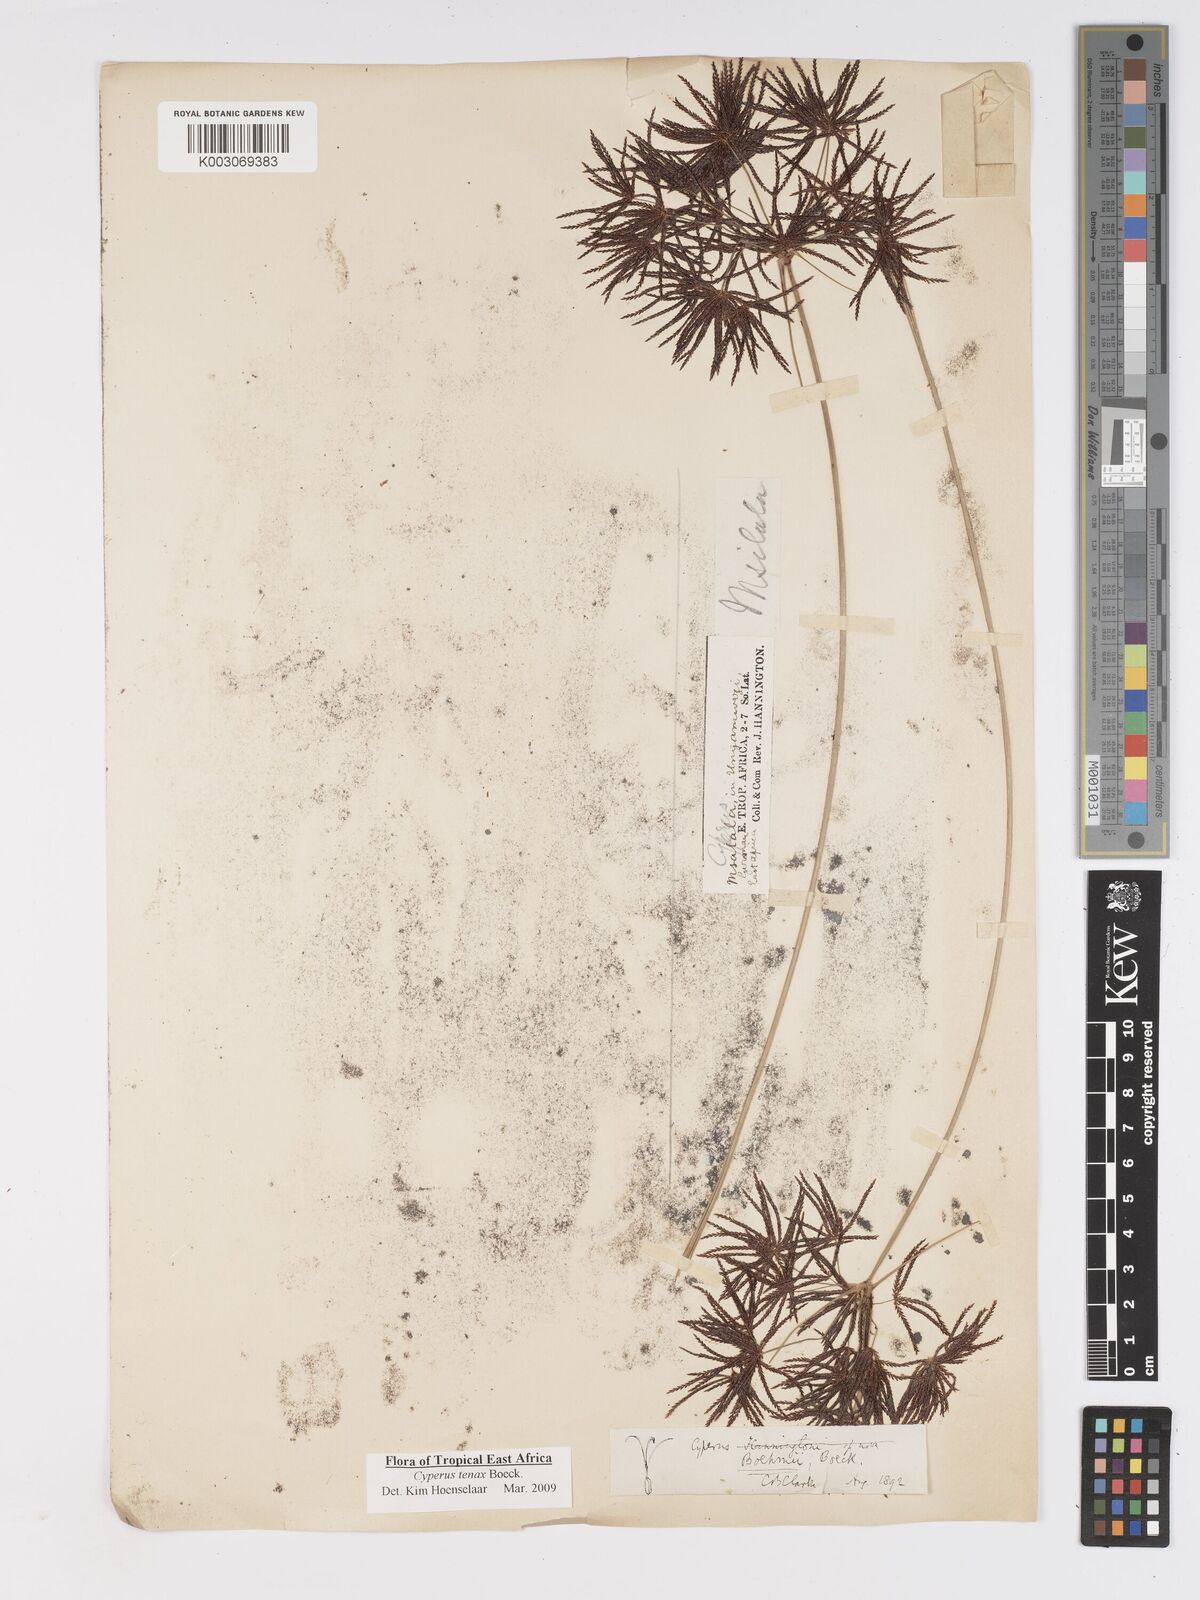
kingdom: Plantae
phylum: Tracheophyta
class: Liliopsida
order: Poales
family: Cyperaceae
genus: Cyperus
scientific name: Cyperus tenax
